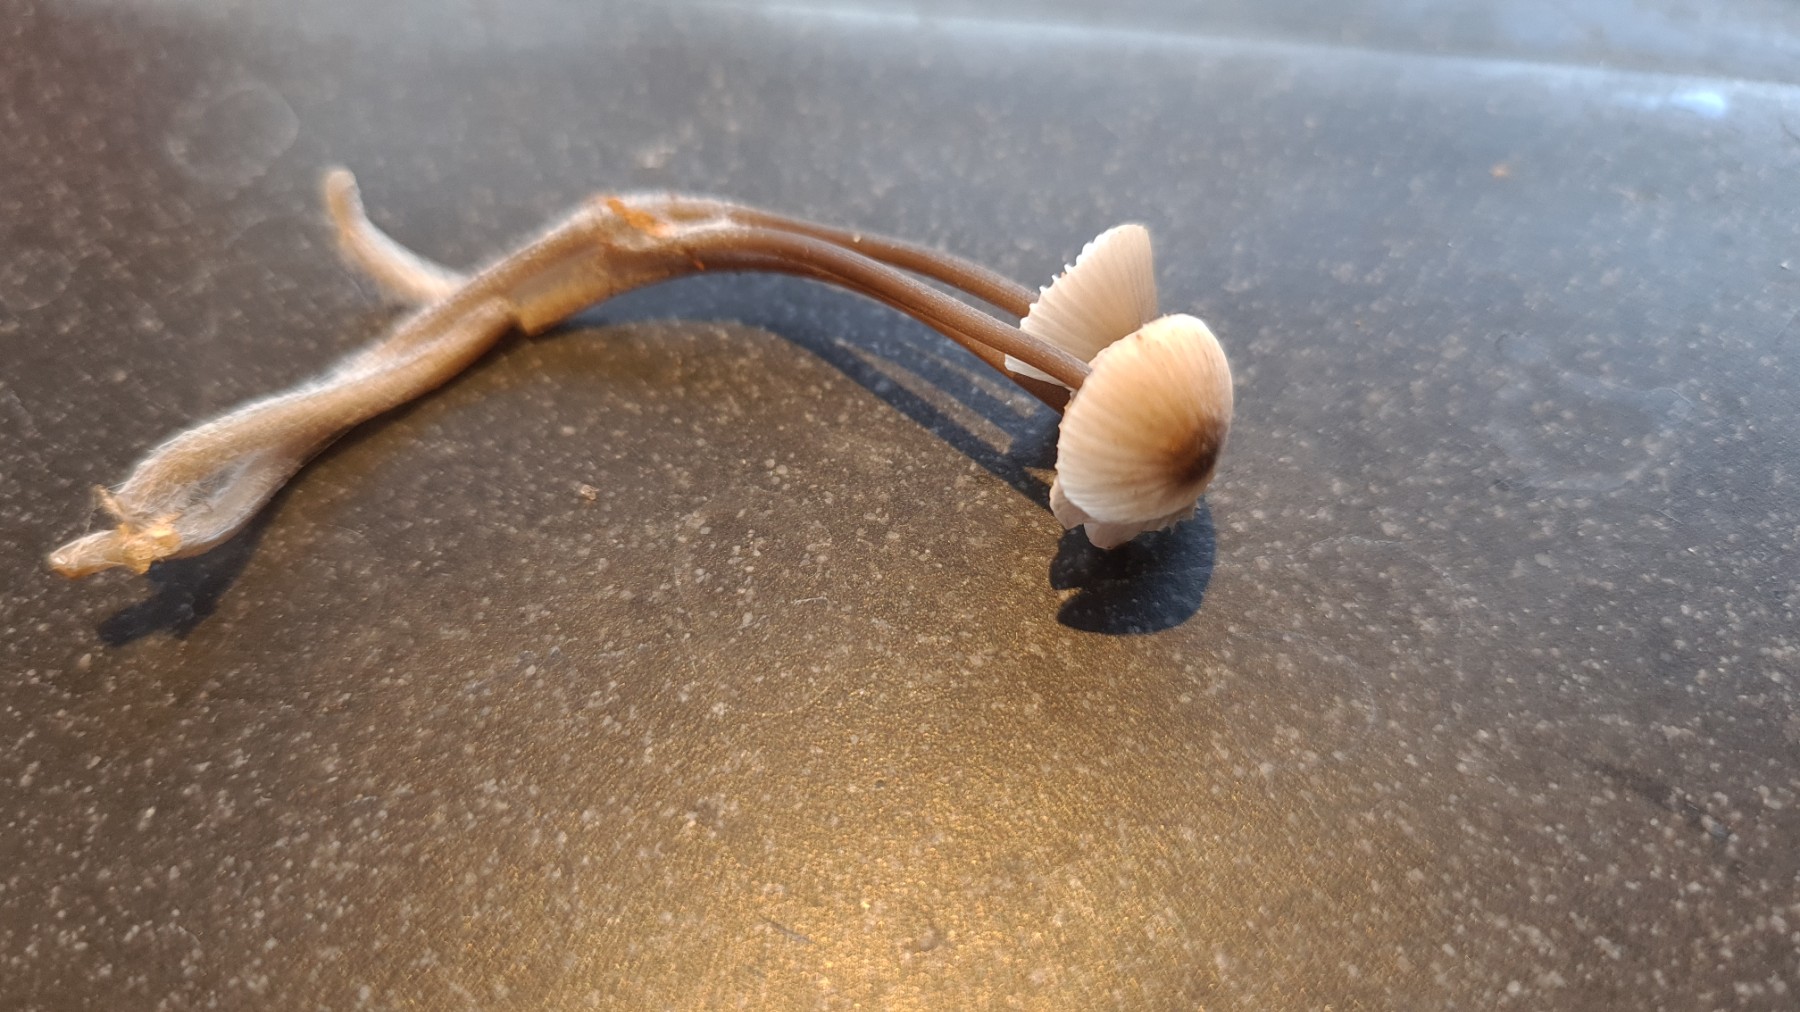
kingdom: Fungi
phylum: Basidiomycota
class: Agaricomycetes
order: Agaricales
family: Mycenaceae
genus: Mycena
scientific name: Mycena galopus
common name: hvidmælket huesvamp
